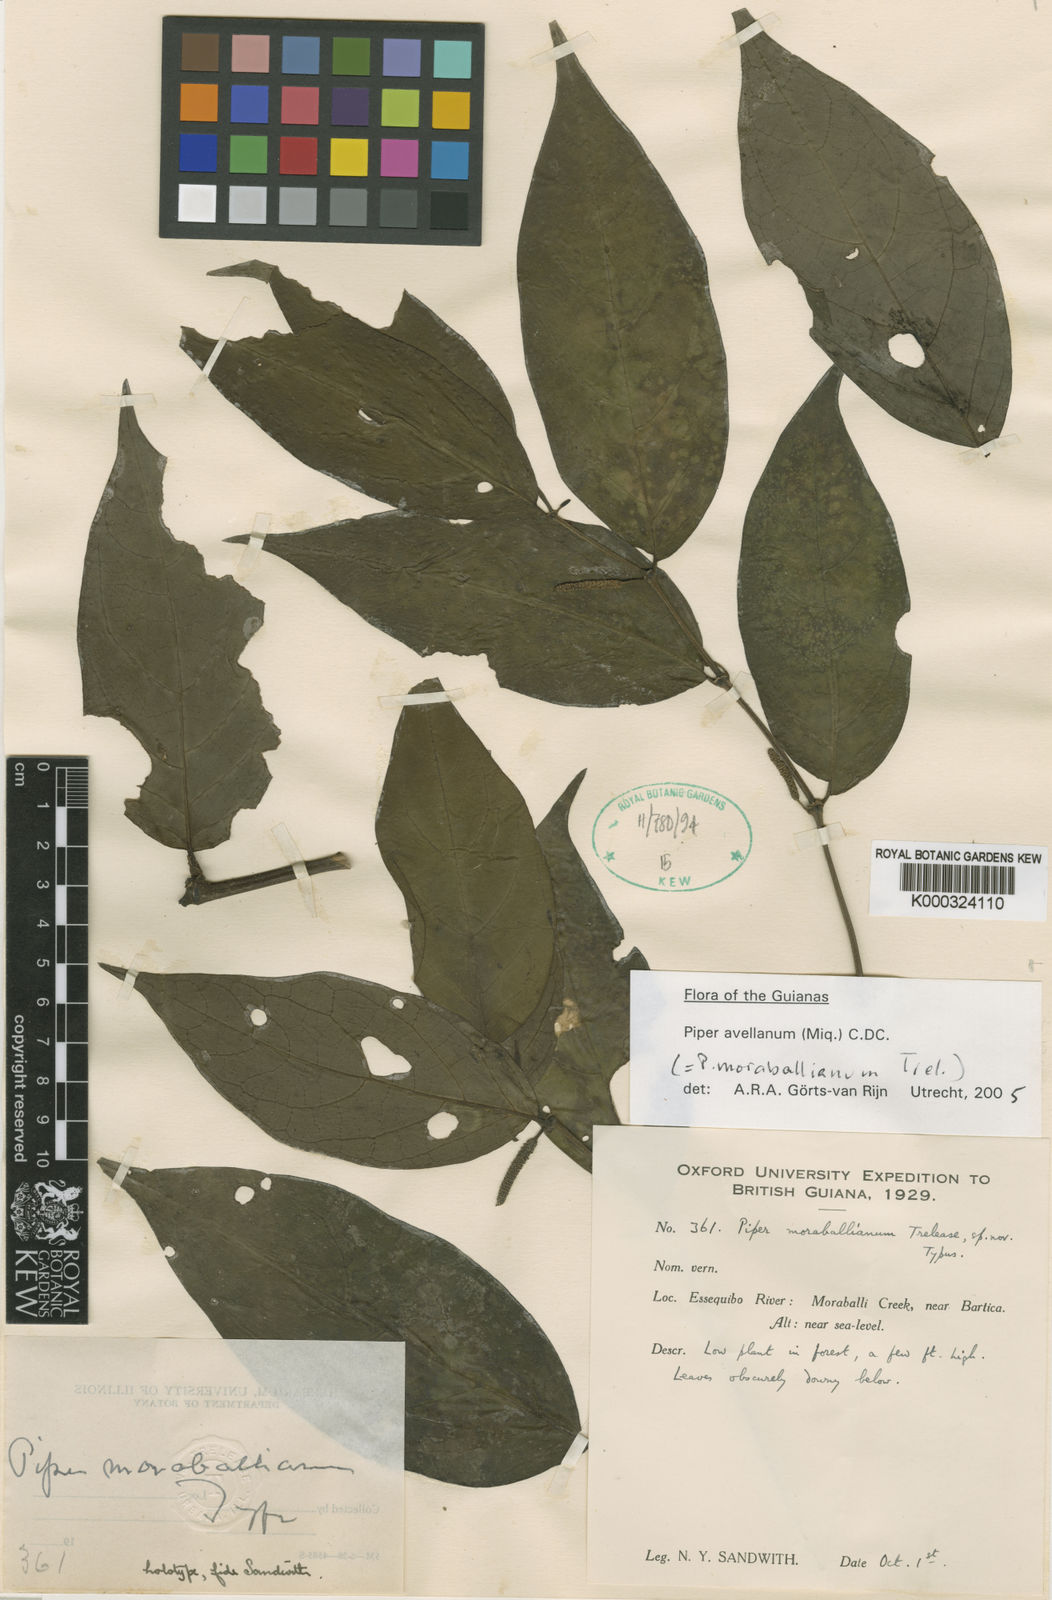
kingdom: Plantae
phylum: Tracheophyta
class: Magnoliopsida
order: Piperales
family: Piperaceae
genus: Piper
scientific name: Piper avellanum
